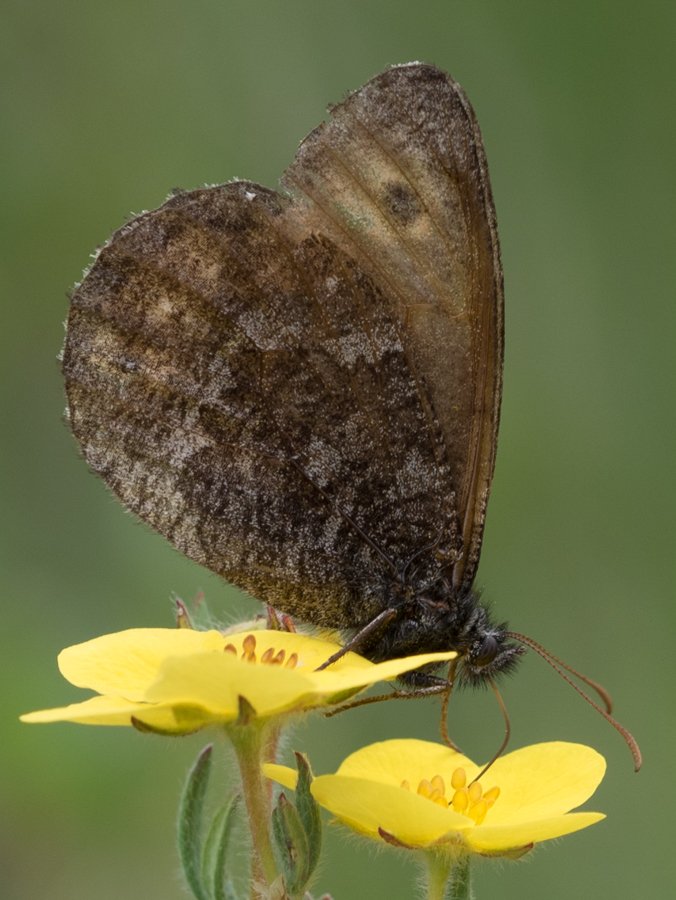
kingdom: Animalia
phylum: Arthropoda
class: Insecta
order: Lepidoptera
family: Nymphalidae
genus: Oeneis
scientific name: Oeneis jutta
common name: Jutta Arctic
